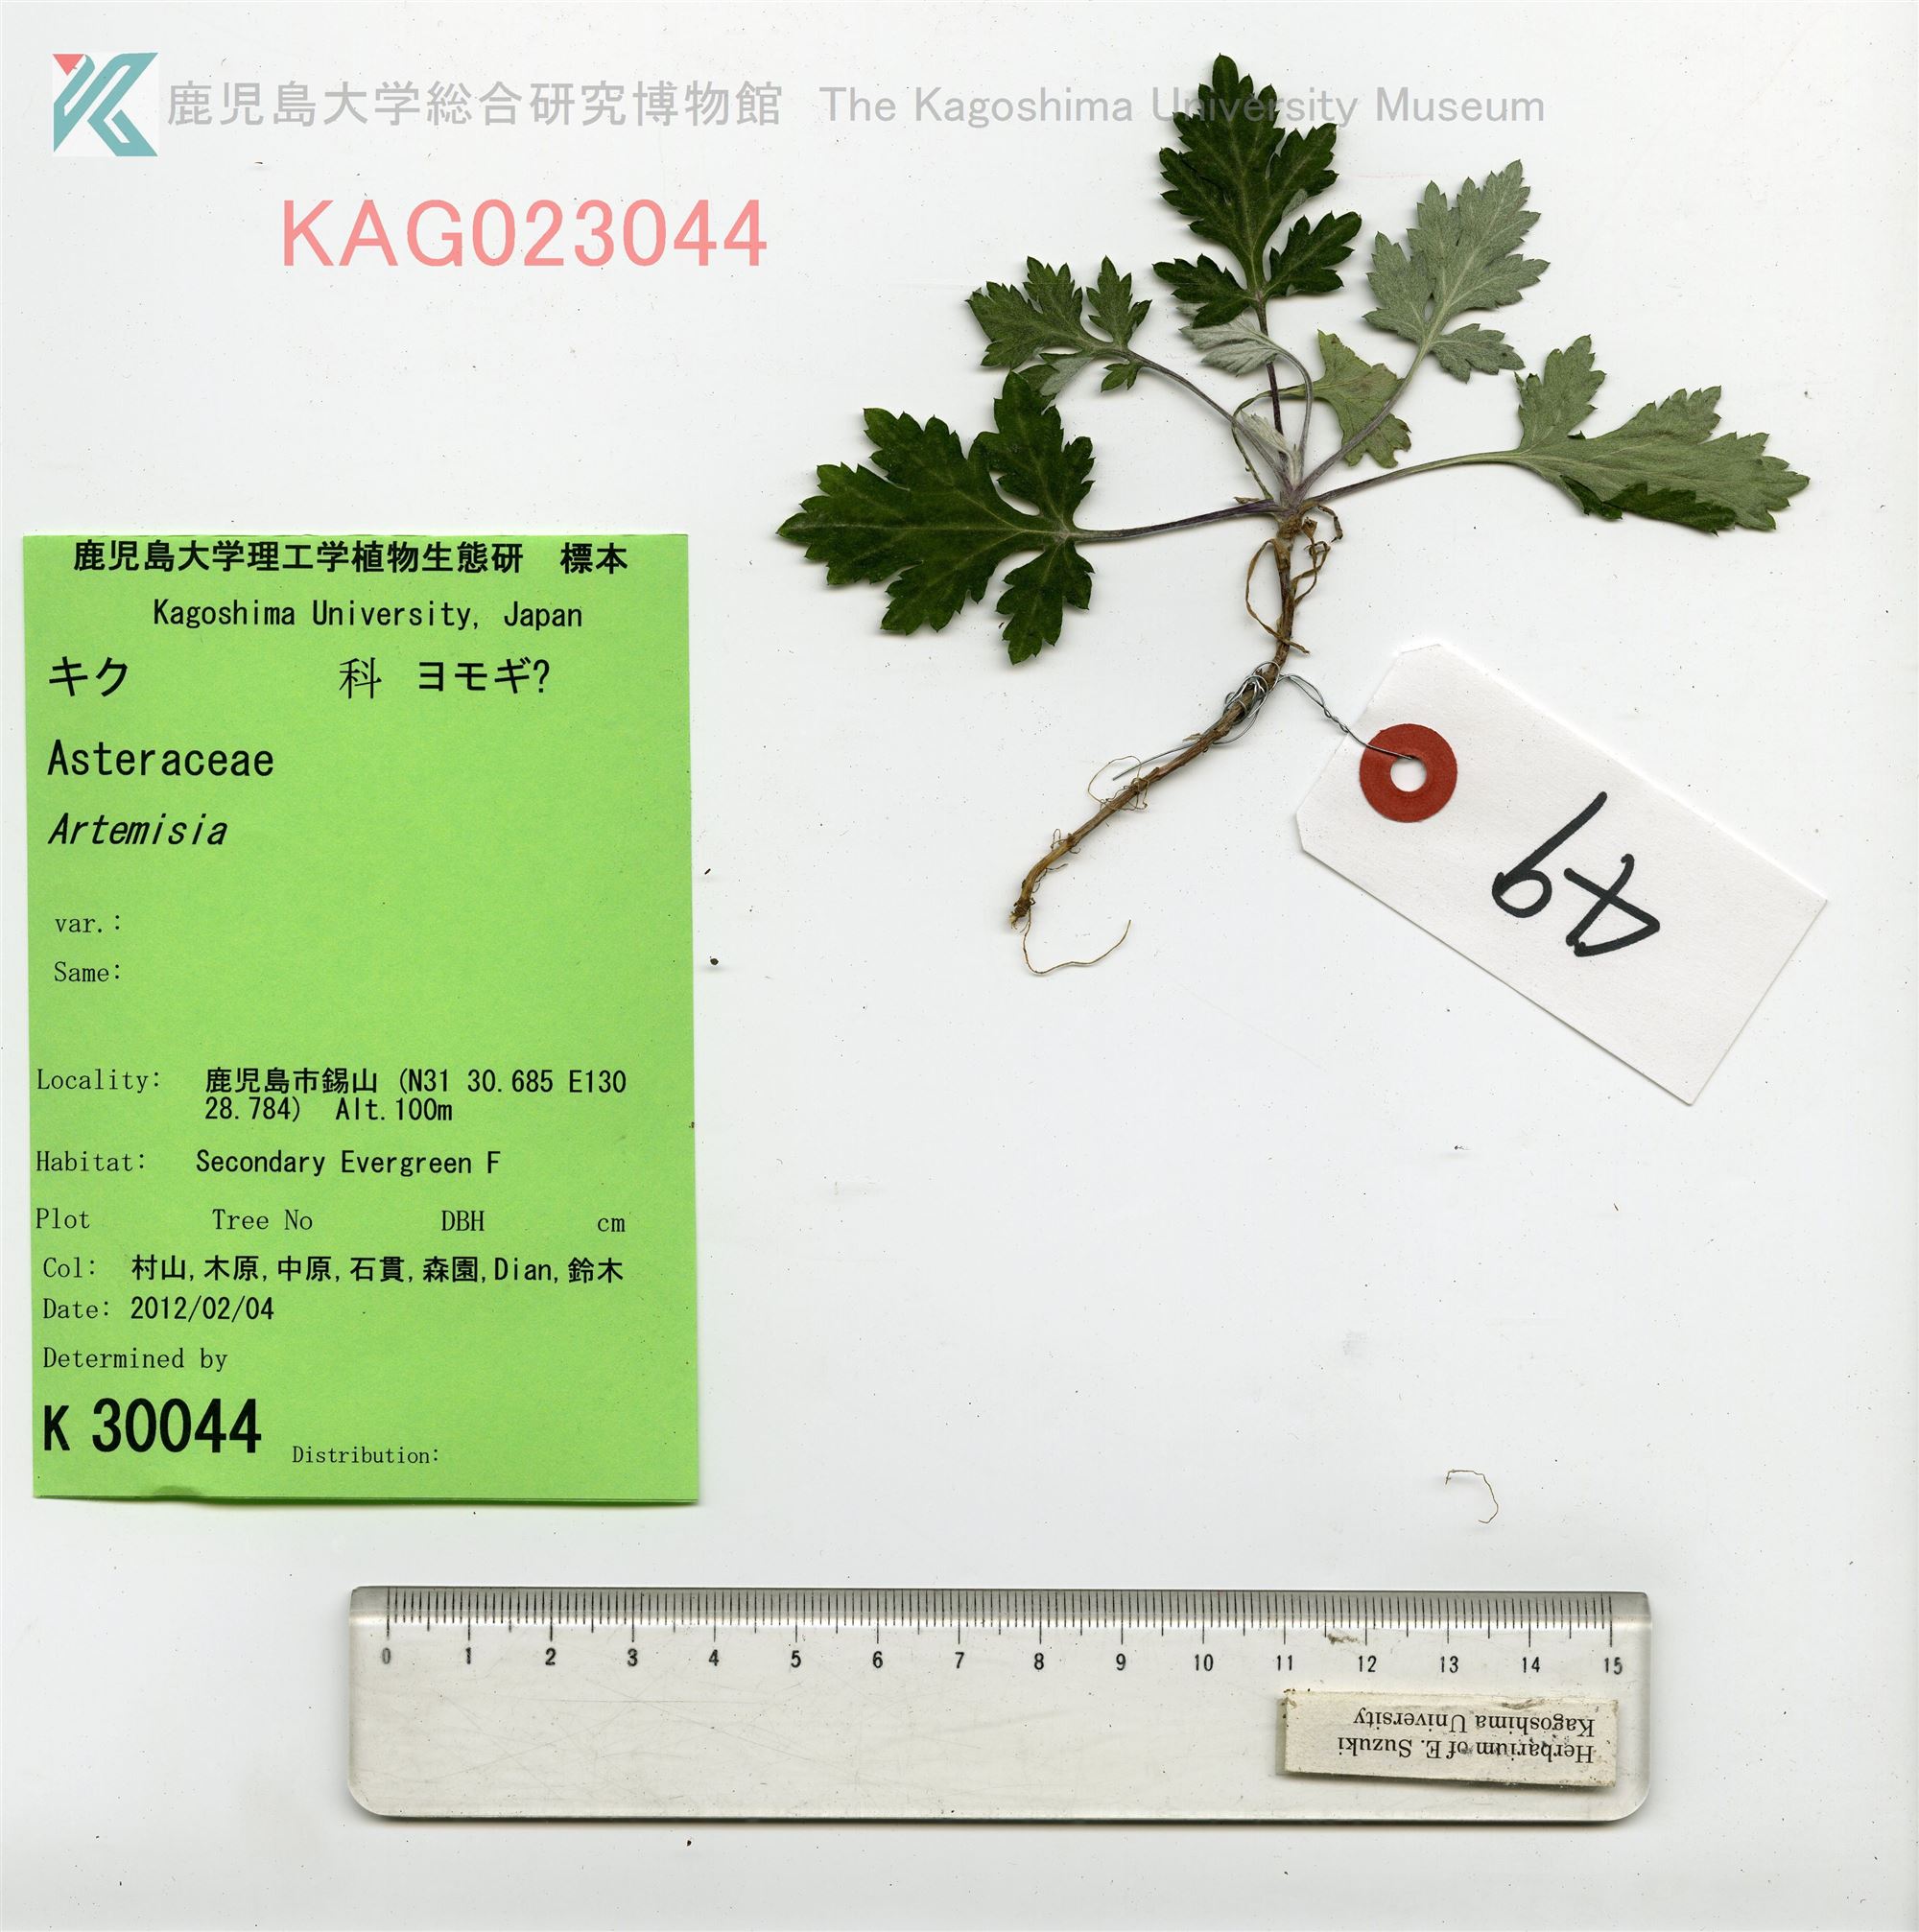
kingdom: Plantae
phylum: Tracheophyta
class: Magnoliopsida
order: Asterales
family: Asteraceae
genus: Artemisia
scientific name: Artemisia princeps
